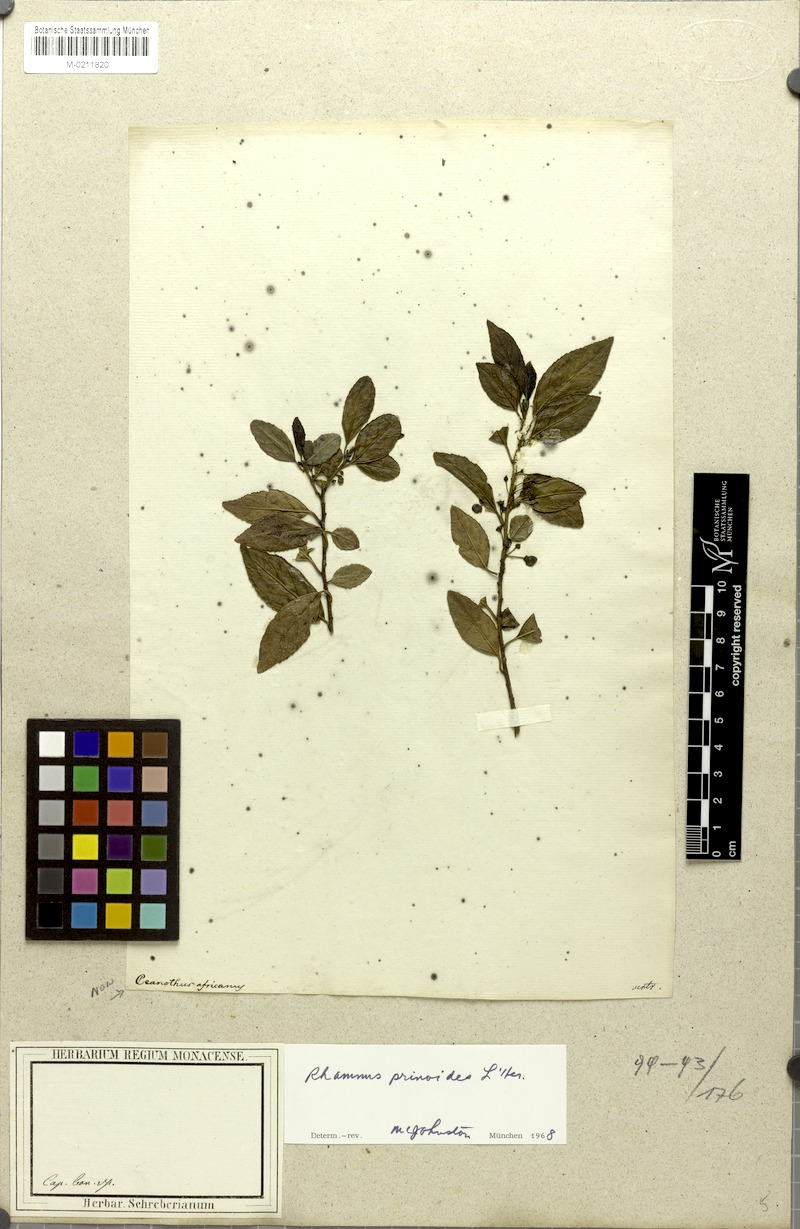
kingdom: Plantae
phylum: Tracheophyta
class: Magnoliopsida
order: Rosales
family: Rhamnaceae
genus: Rhamnus
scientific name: Rhamnus prinoides
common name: Dogwood
